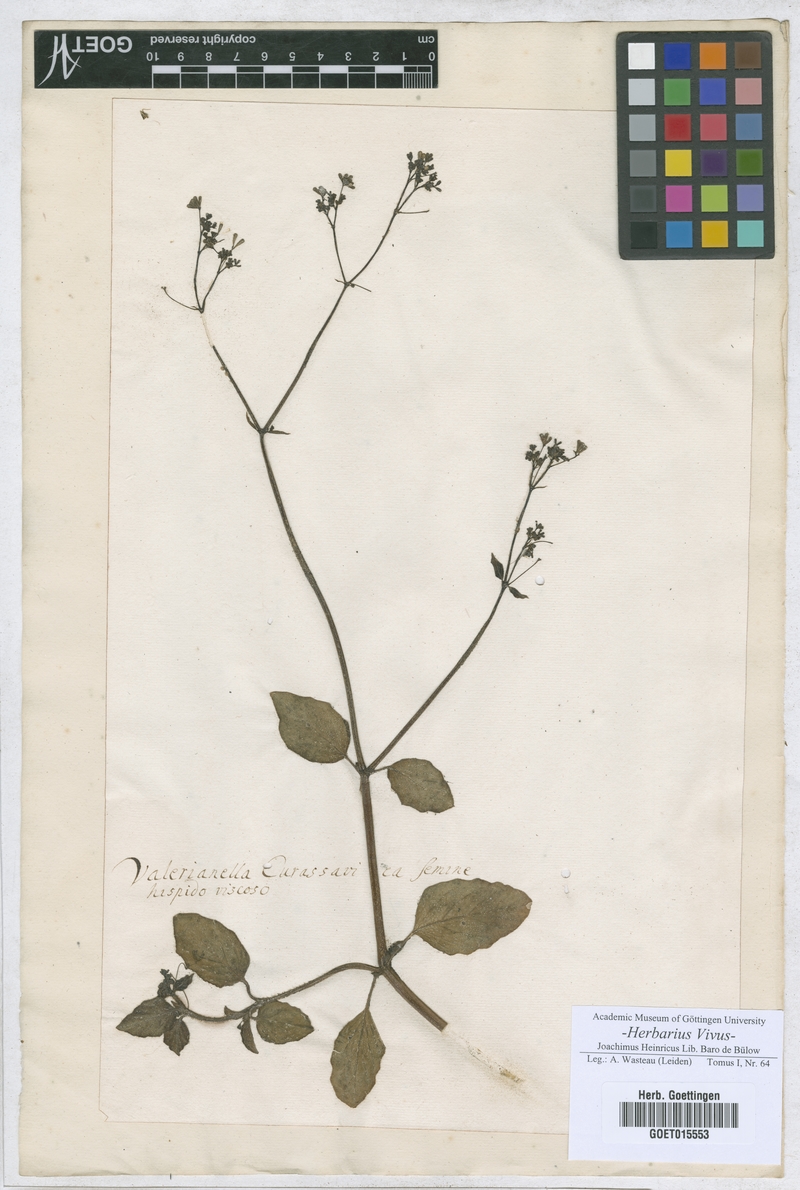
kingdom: Plantae
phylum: Tracheophyta
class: Magnoliopsida
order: Dipsacales
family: Caprifoliaceae
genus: Valerianella
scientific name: Valerianella
